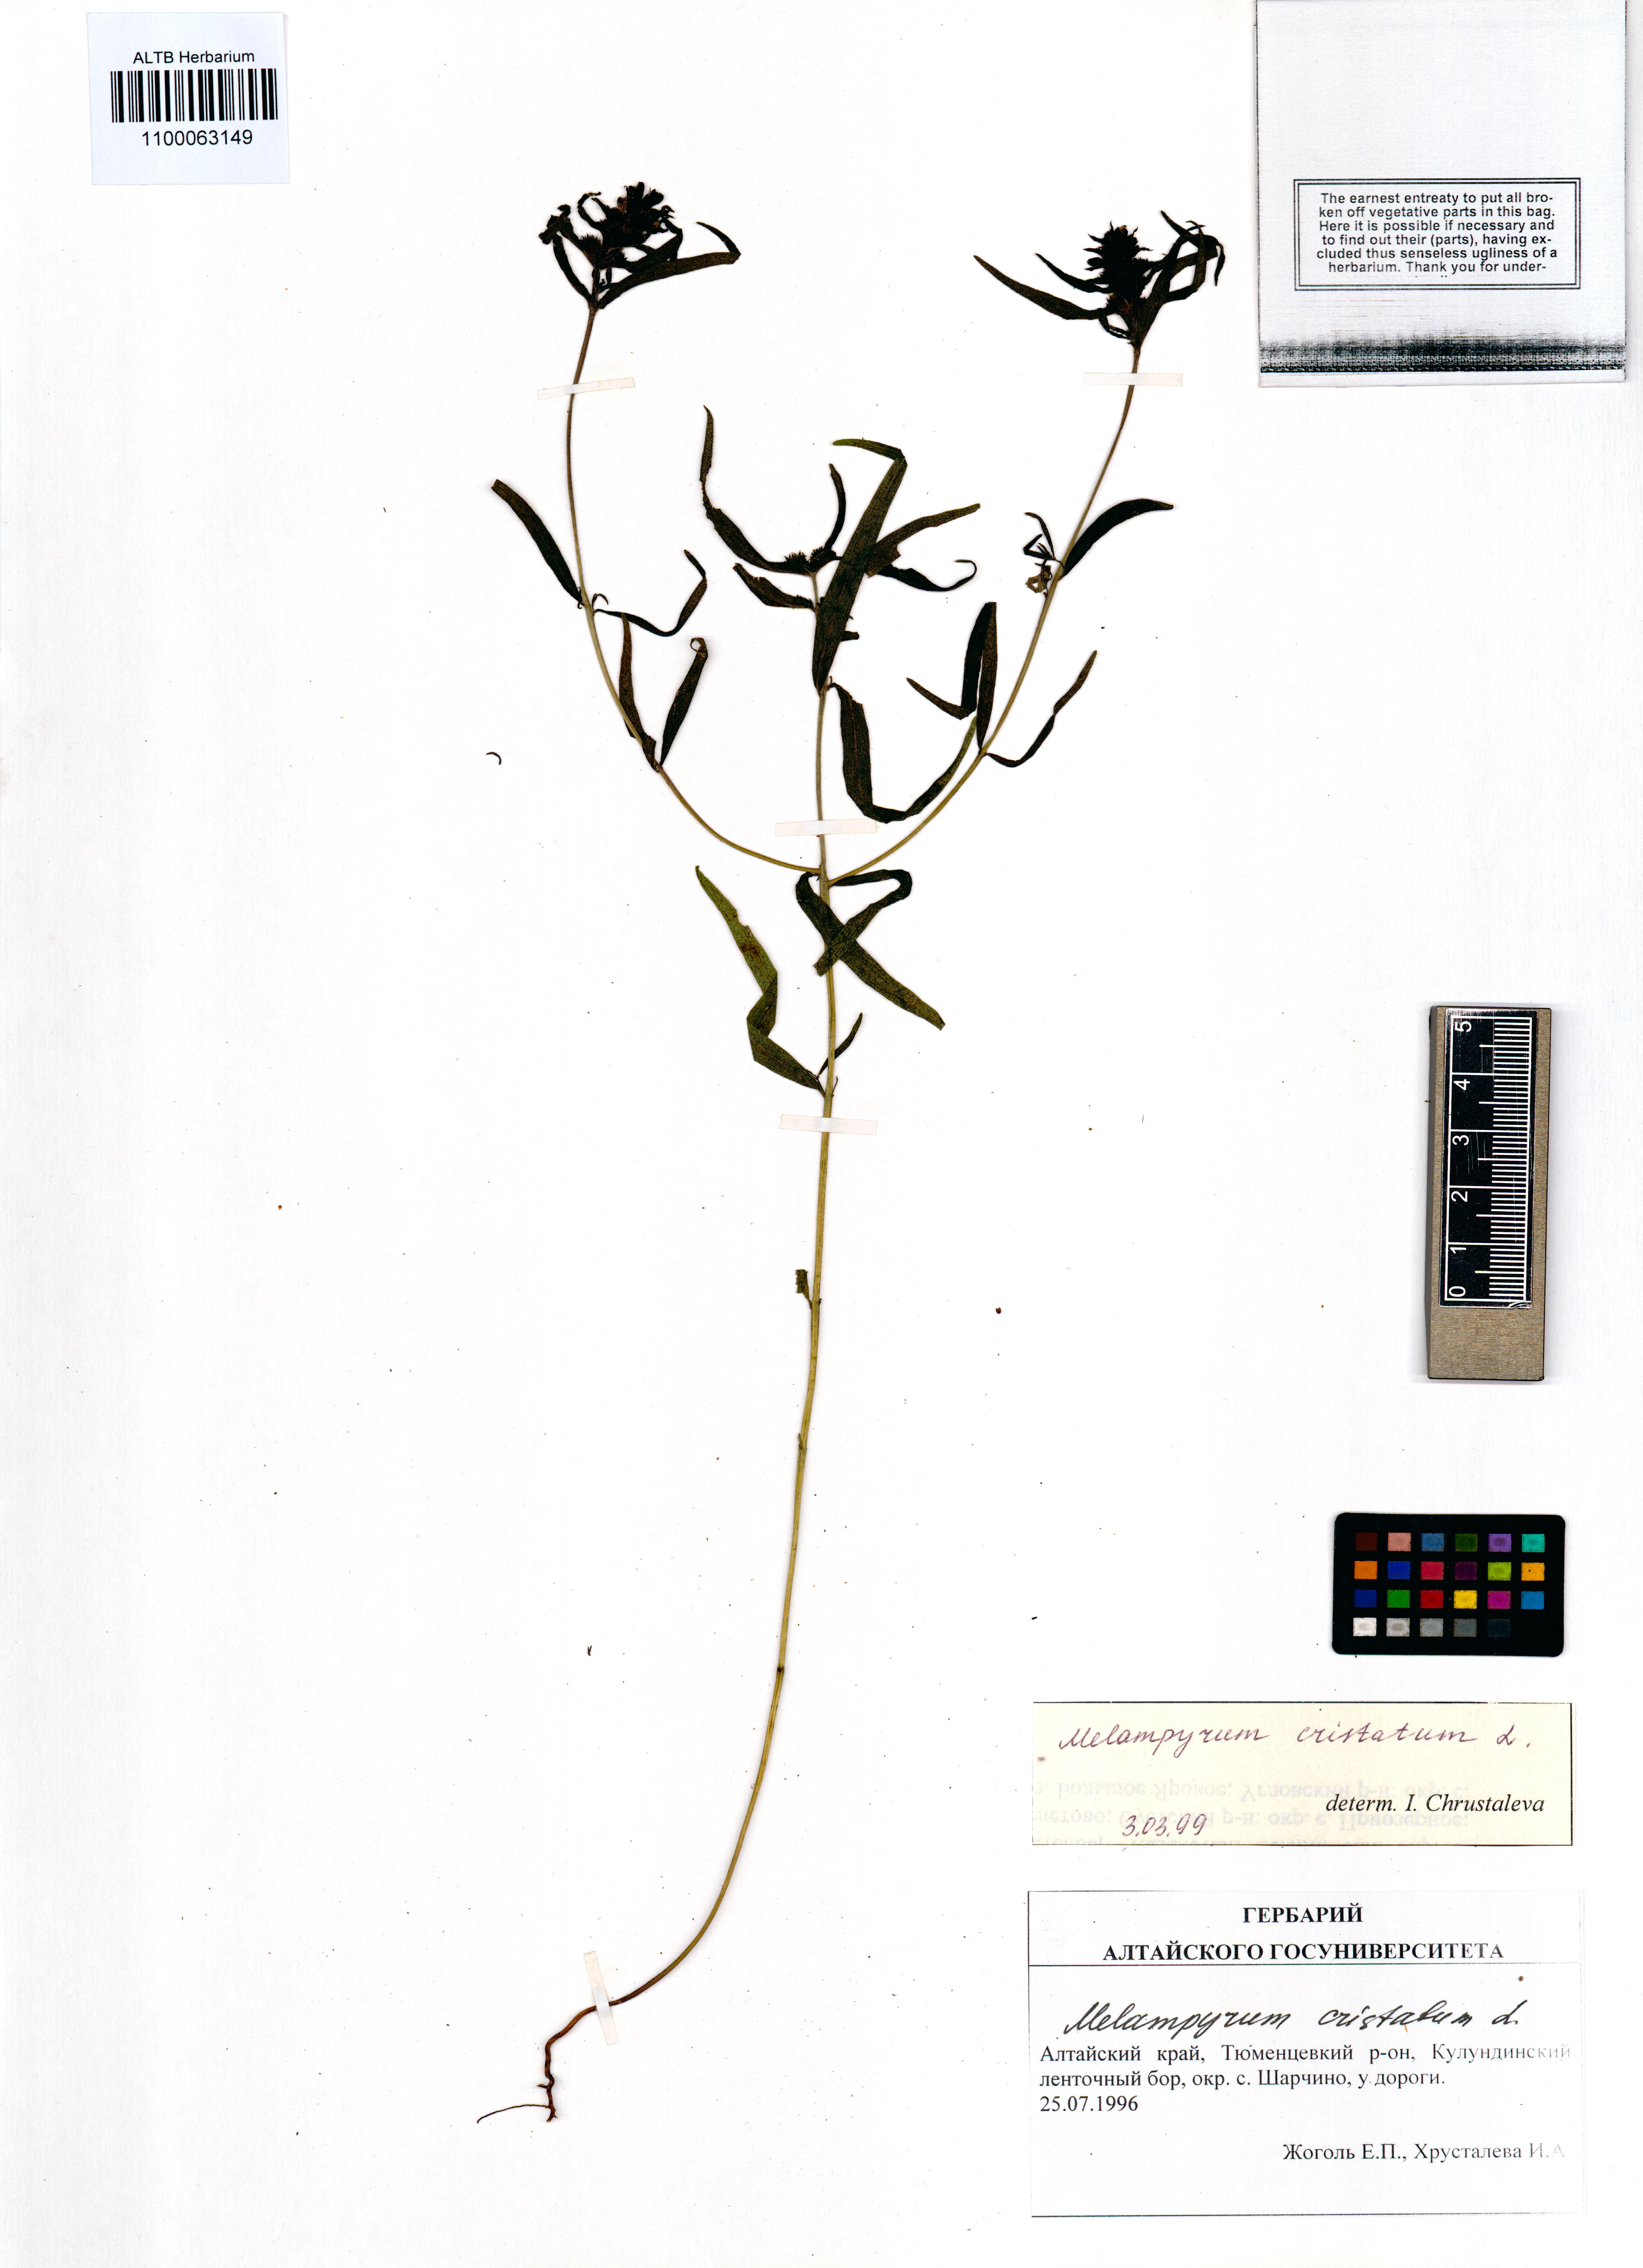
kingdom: Plantae
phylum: Tracheophyta
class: Magnoliopsida
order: Lamiales
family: Orobanchaceae
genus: Melampyrum
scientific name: Melampyrum cristatum
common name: Crested cow-wheat
